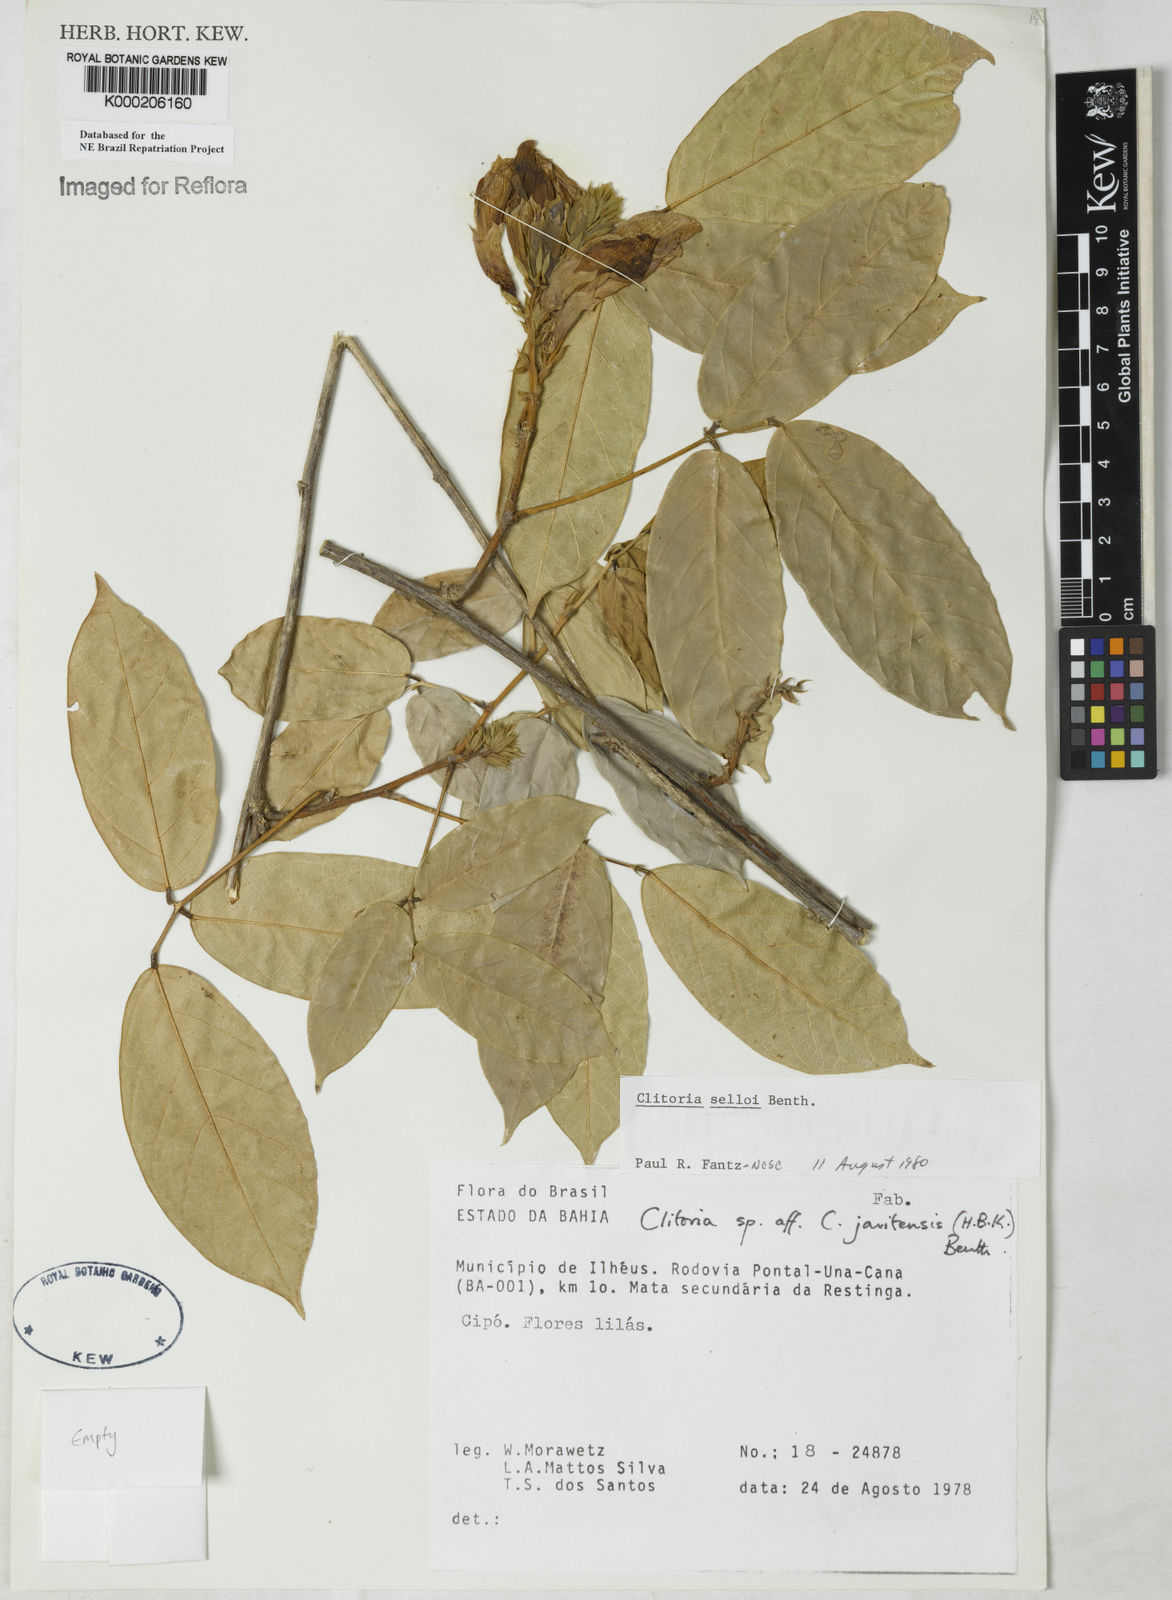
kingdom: Plantae
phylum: Tracheophyta
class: Magnoliopsida
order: Fabales
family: Fabaceae
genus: Clitoria
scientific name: Clitoria selloi
